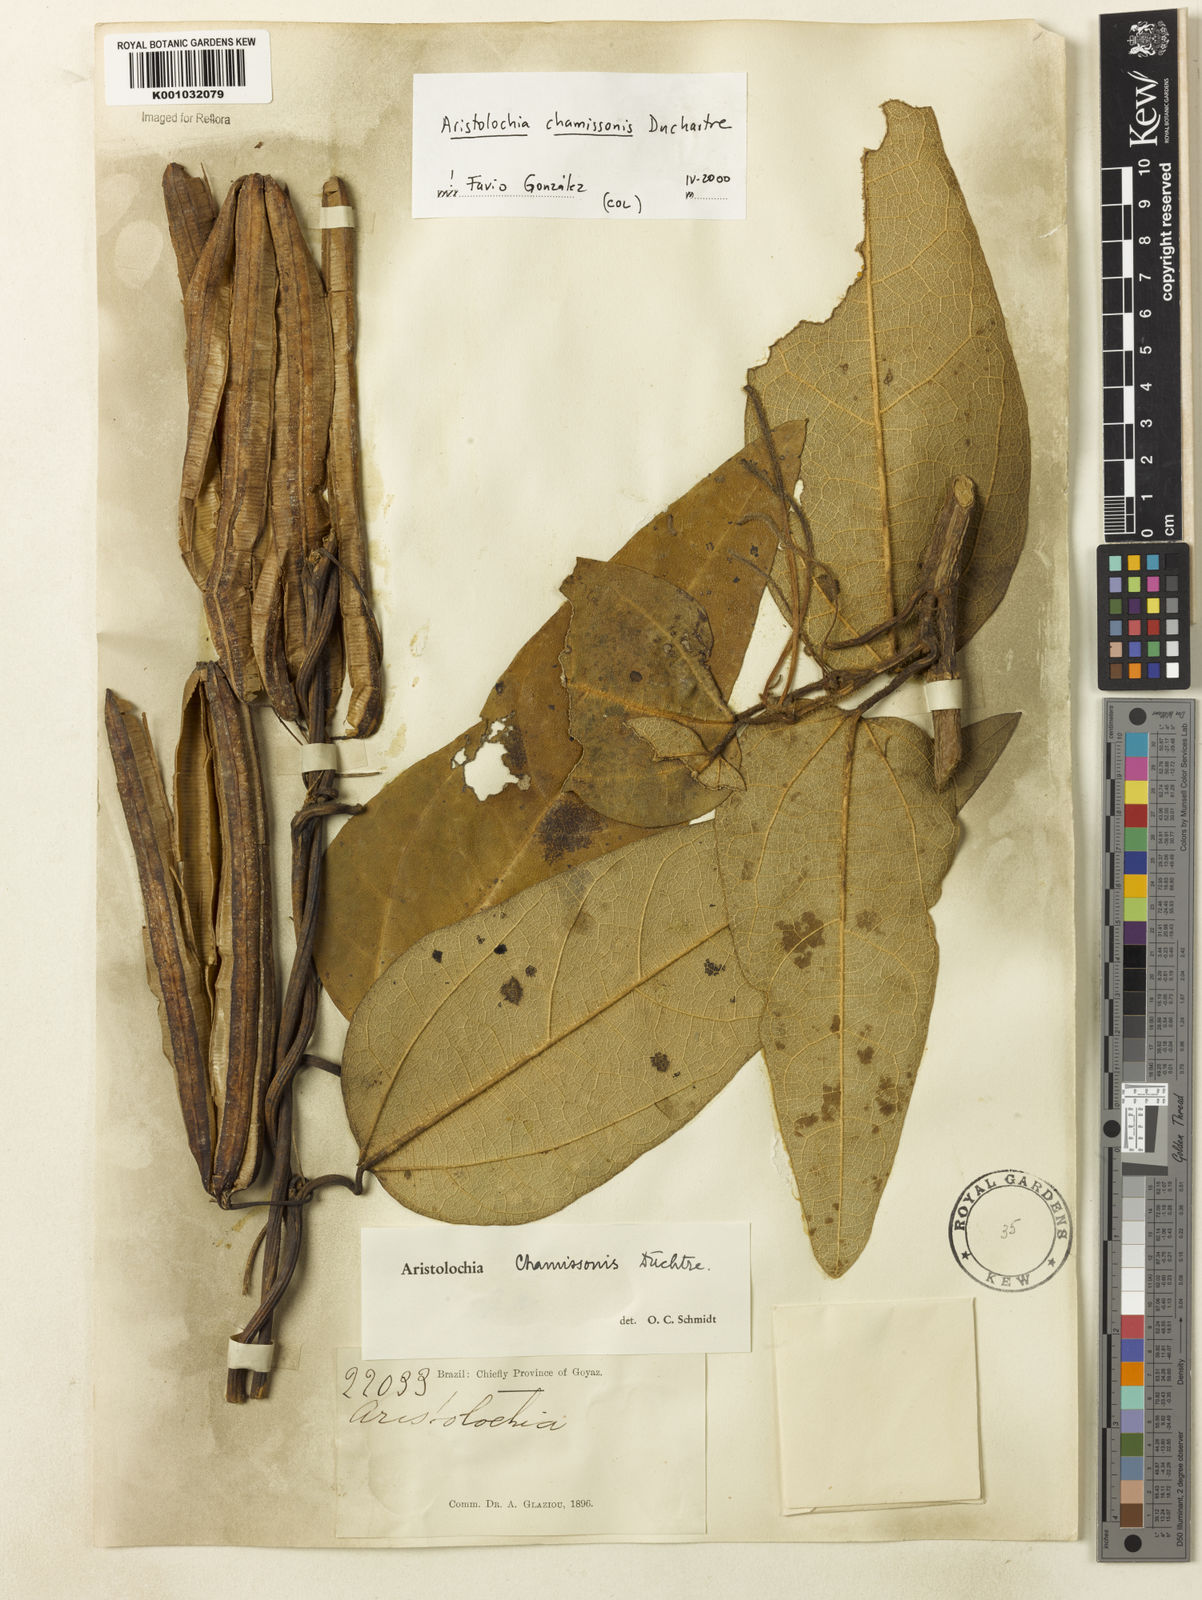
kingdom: Plantae
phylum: Tracheophyta
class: Magnoliopsida
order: Piperales
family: Aristolochiaceae
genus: Aristolochia
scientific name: Aristolochia chamissonis
